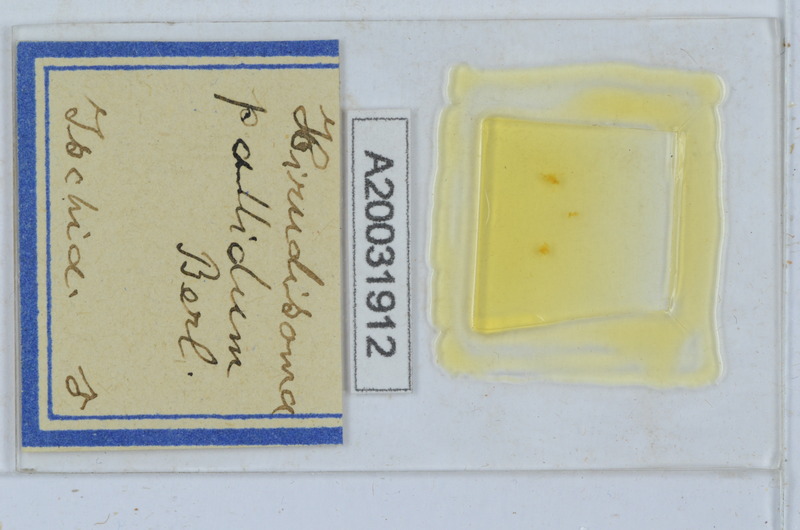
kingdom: Animalia
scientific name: Animalia
